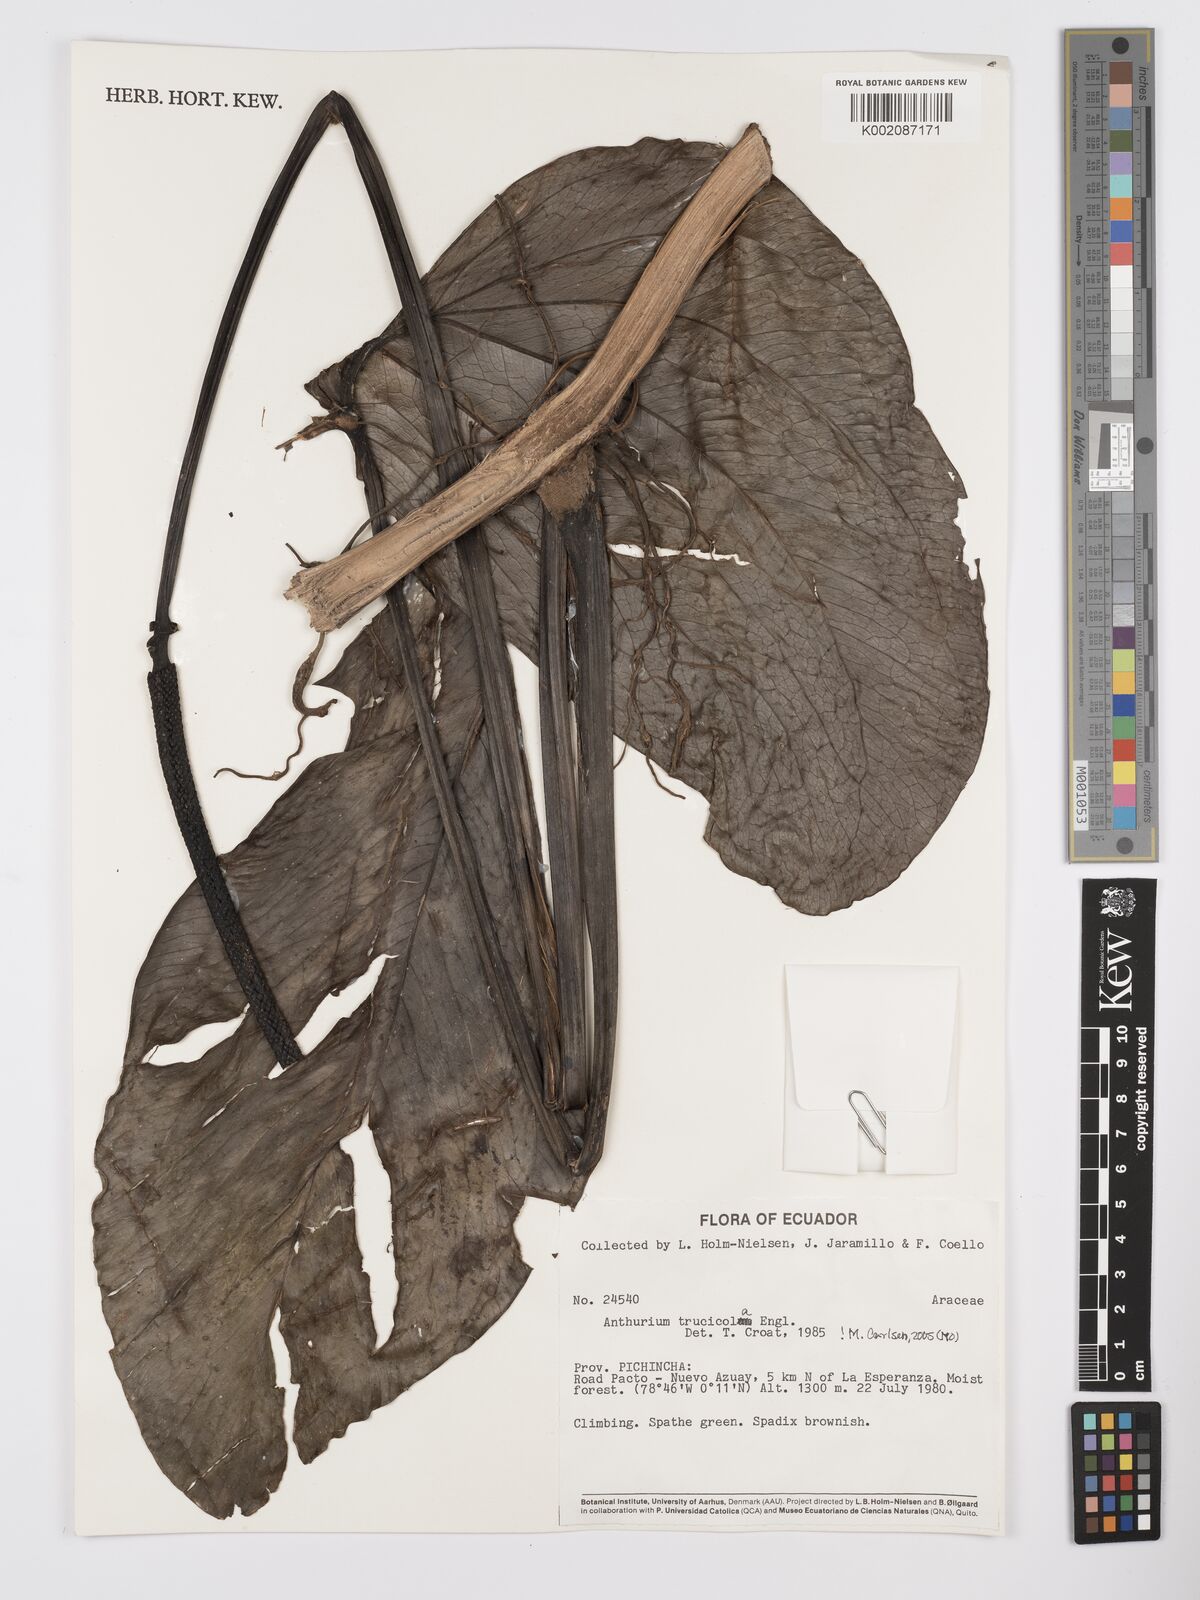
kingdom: Plantae
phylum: Tracheophyta
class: Liliopsida
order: Alismatales
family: Araceae
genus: Anthurium
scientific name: Anthurium truncicola
